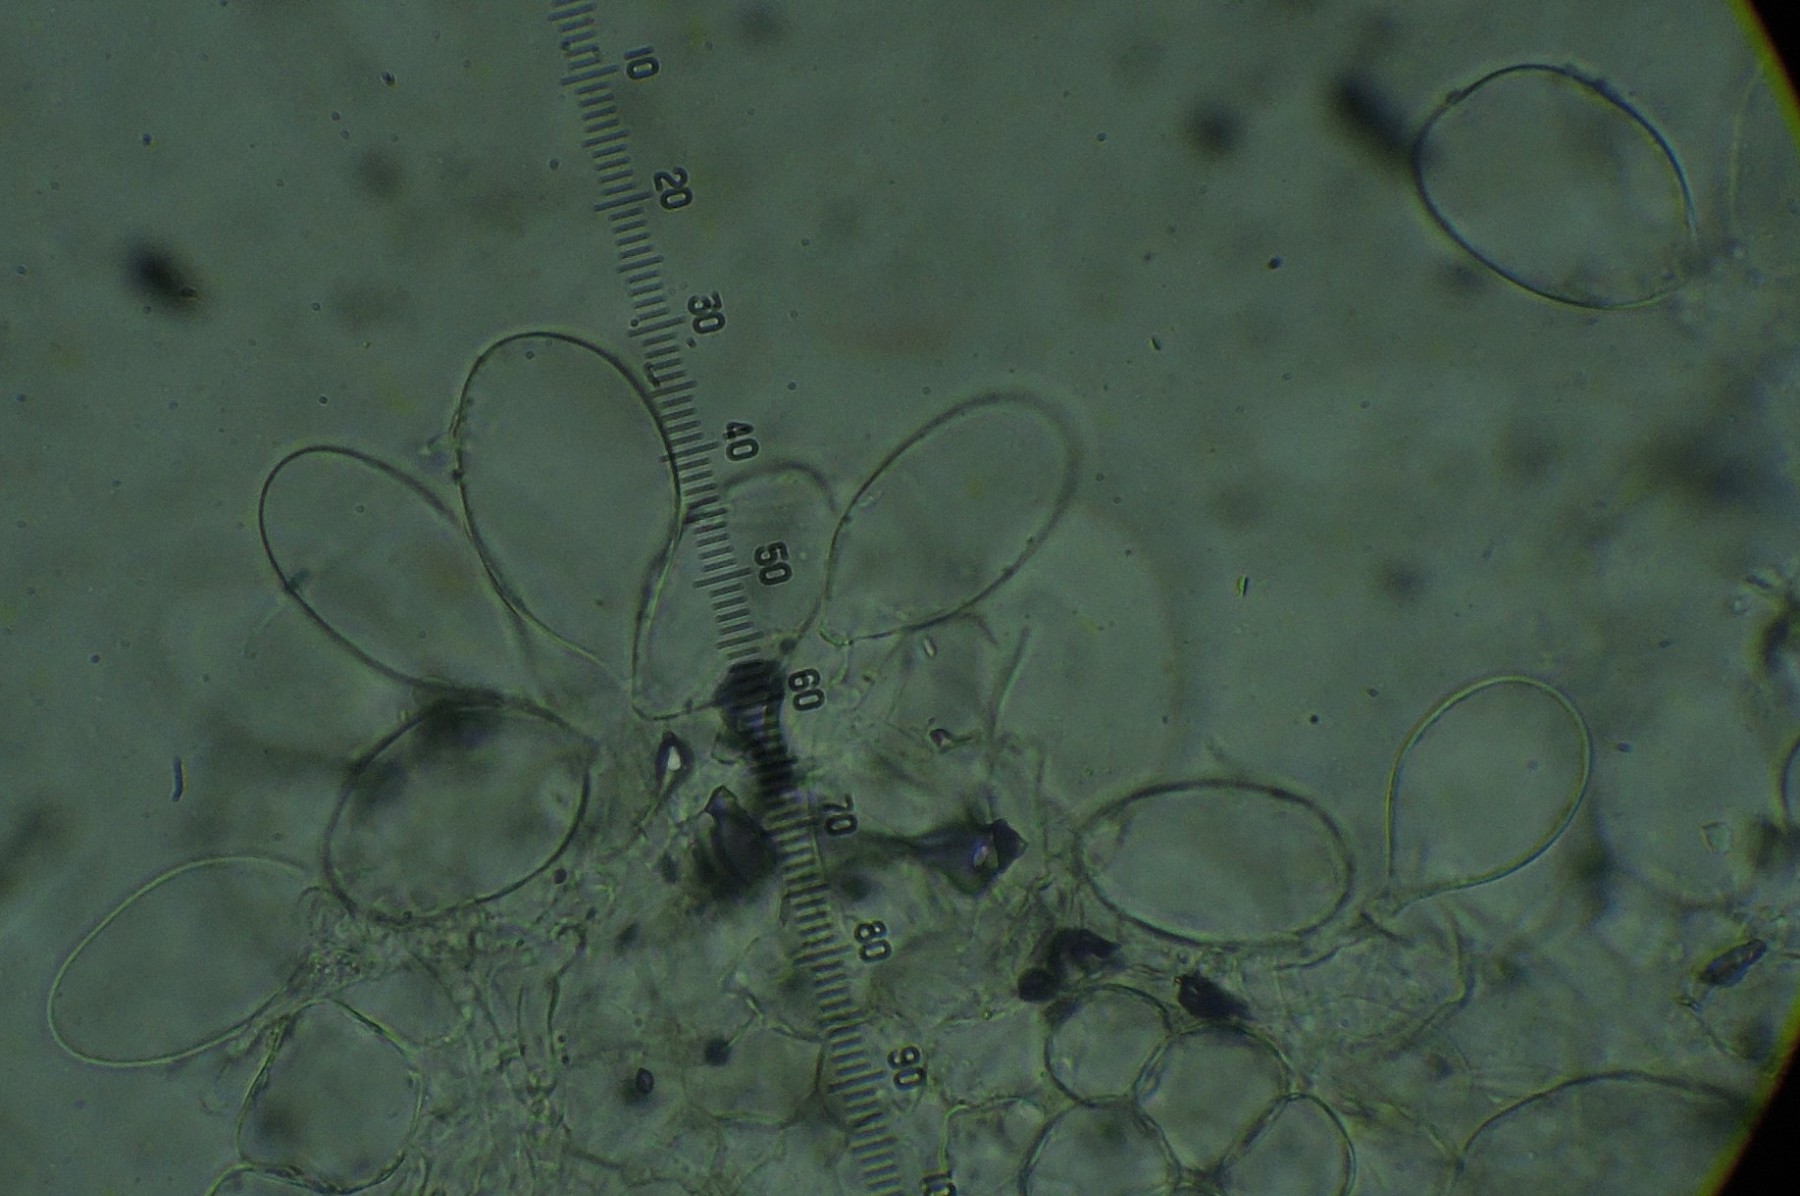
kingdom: Fungi
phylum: Basidiomycota
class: Agaricomycetes
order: Agaricales
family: Psathyrellaceae
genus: Coprinopsis
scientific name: Coprinopsis
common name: blækhat
